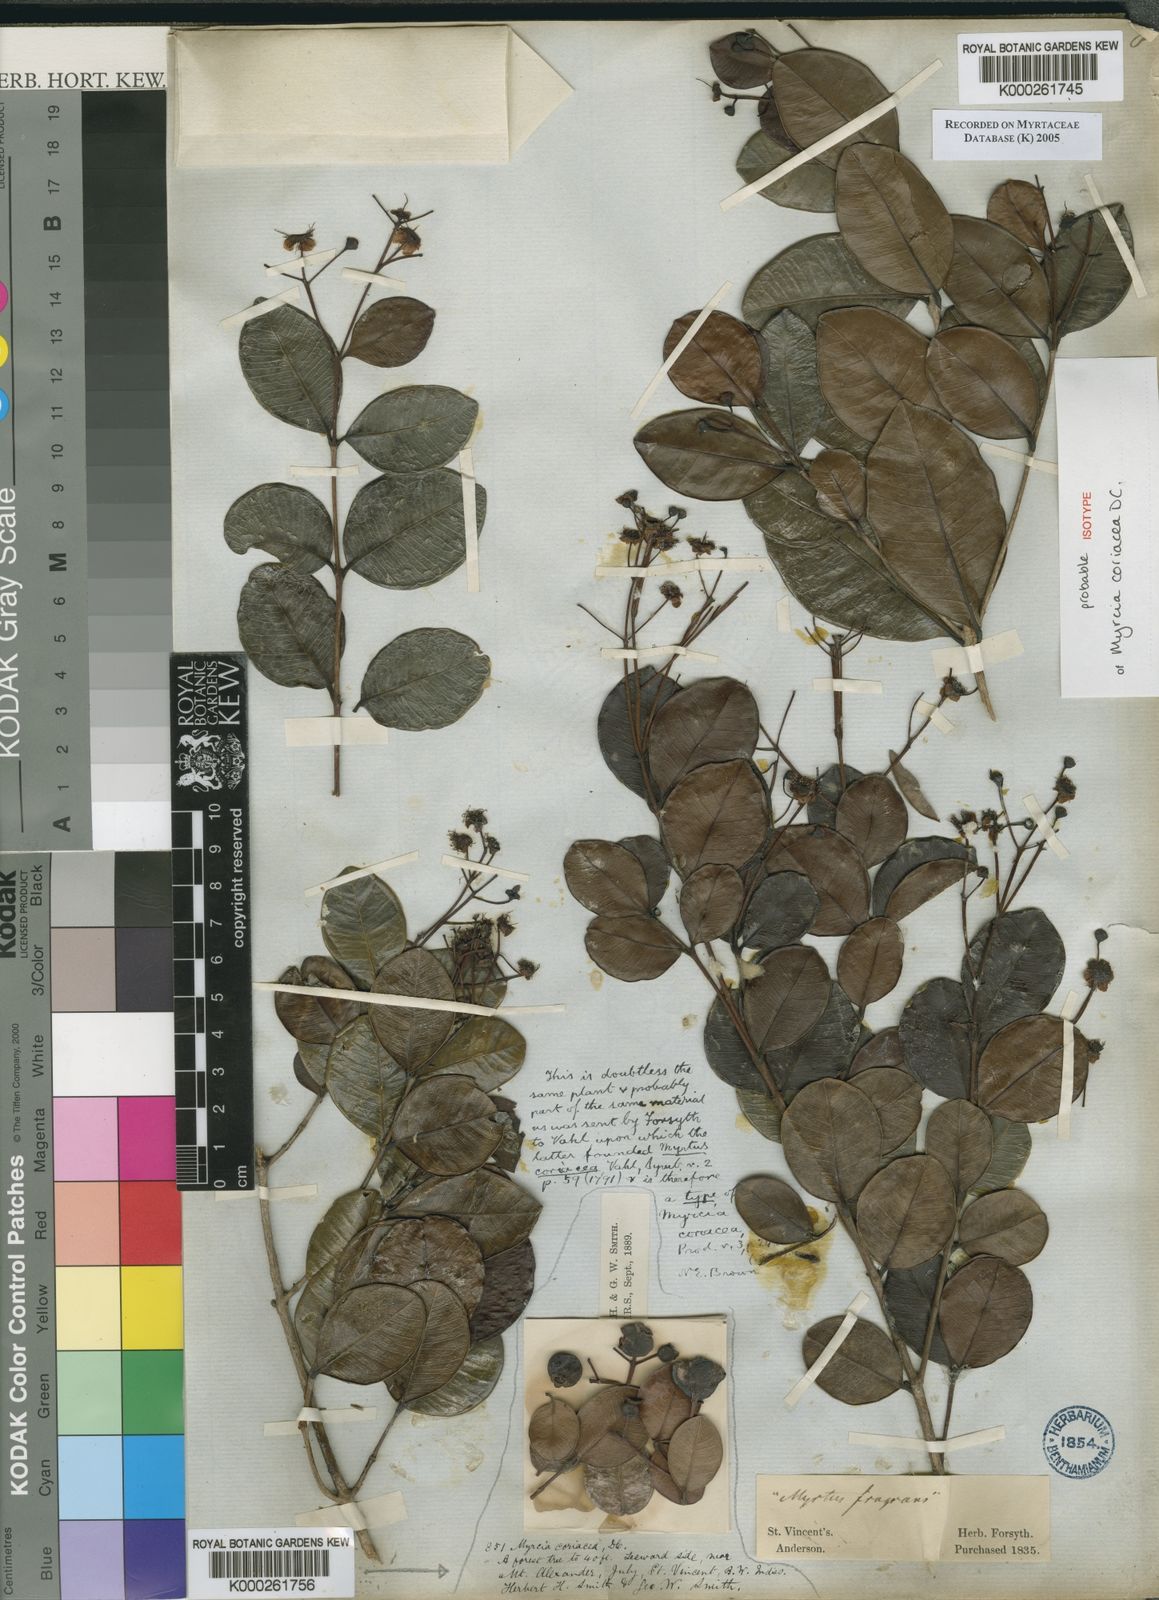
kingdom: Plantae
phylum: Tracheophyta
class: Magnoliopsida
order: Myrtales
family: Myrtaceae
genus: Myrcia
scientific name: Myrcia guianensis
